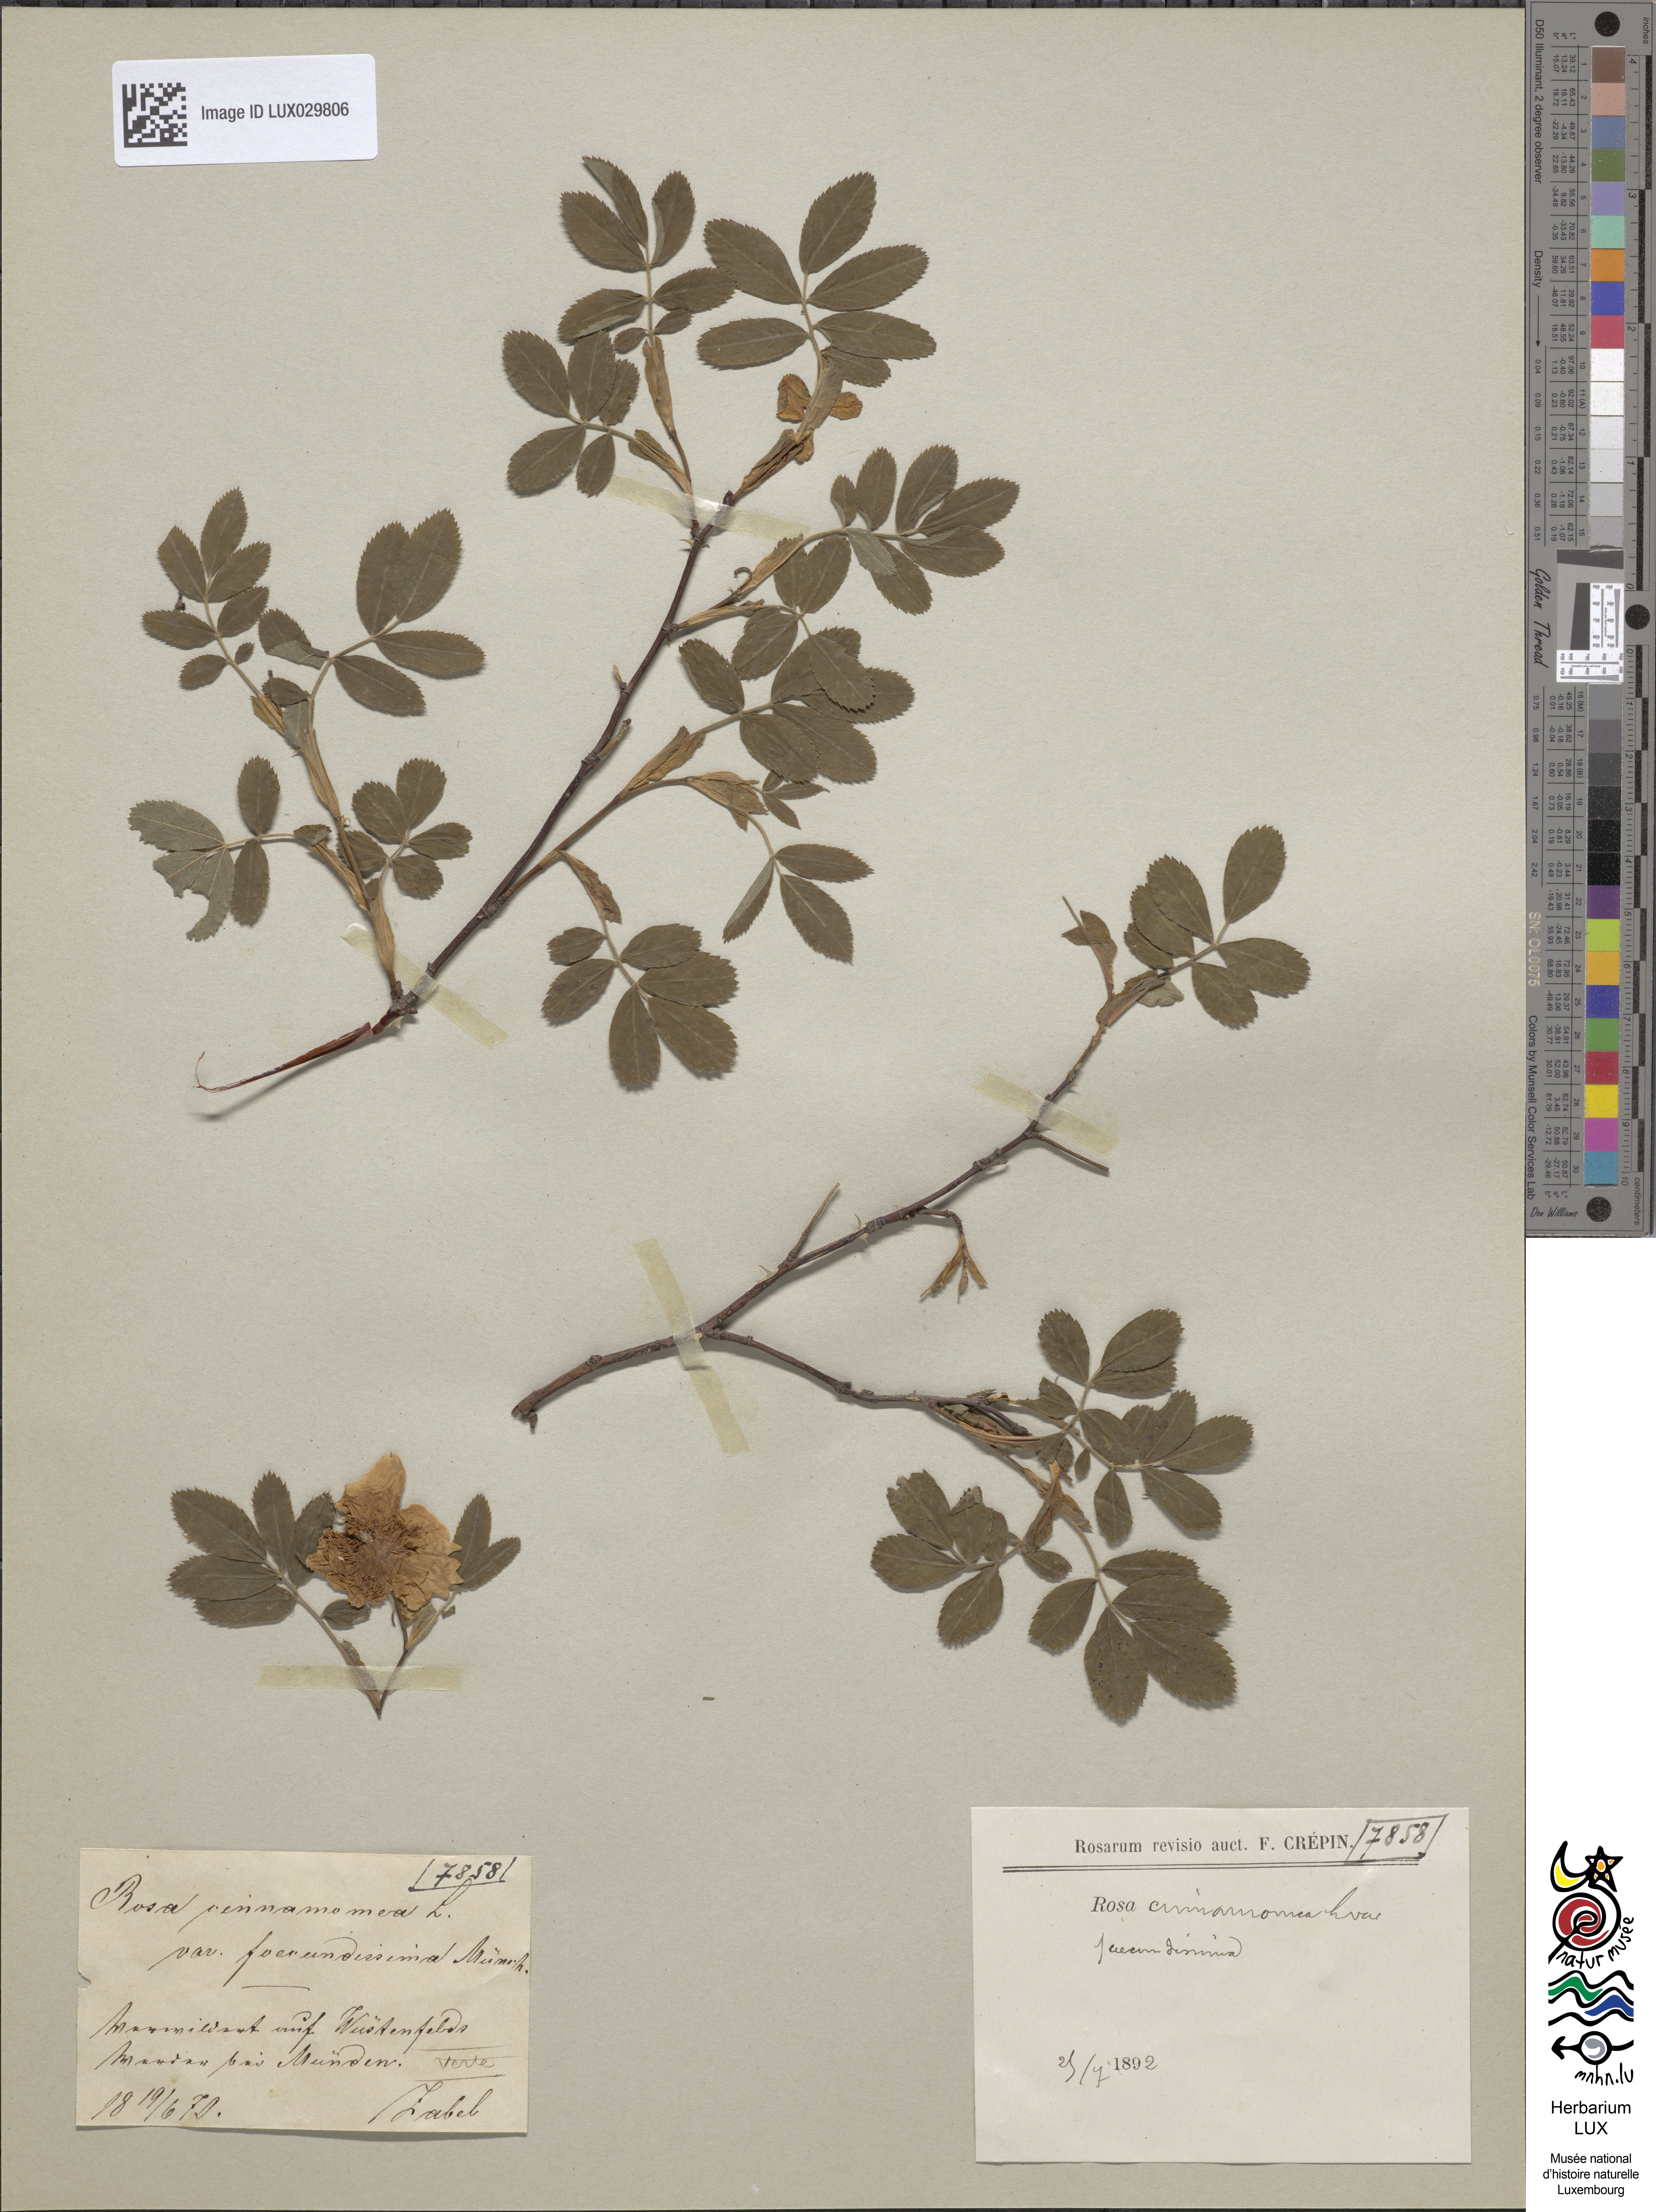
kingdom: Plantae
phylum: Tracheophyta
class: Magnoliopsida
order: Rosales
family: Rosaceae
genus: Rosa
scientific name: Rosa majalis
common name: Cinnamon rose
